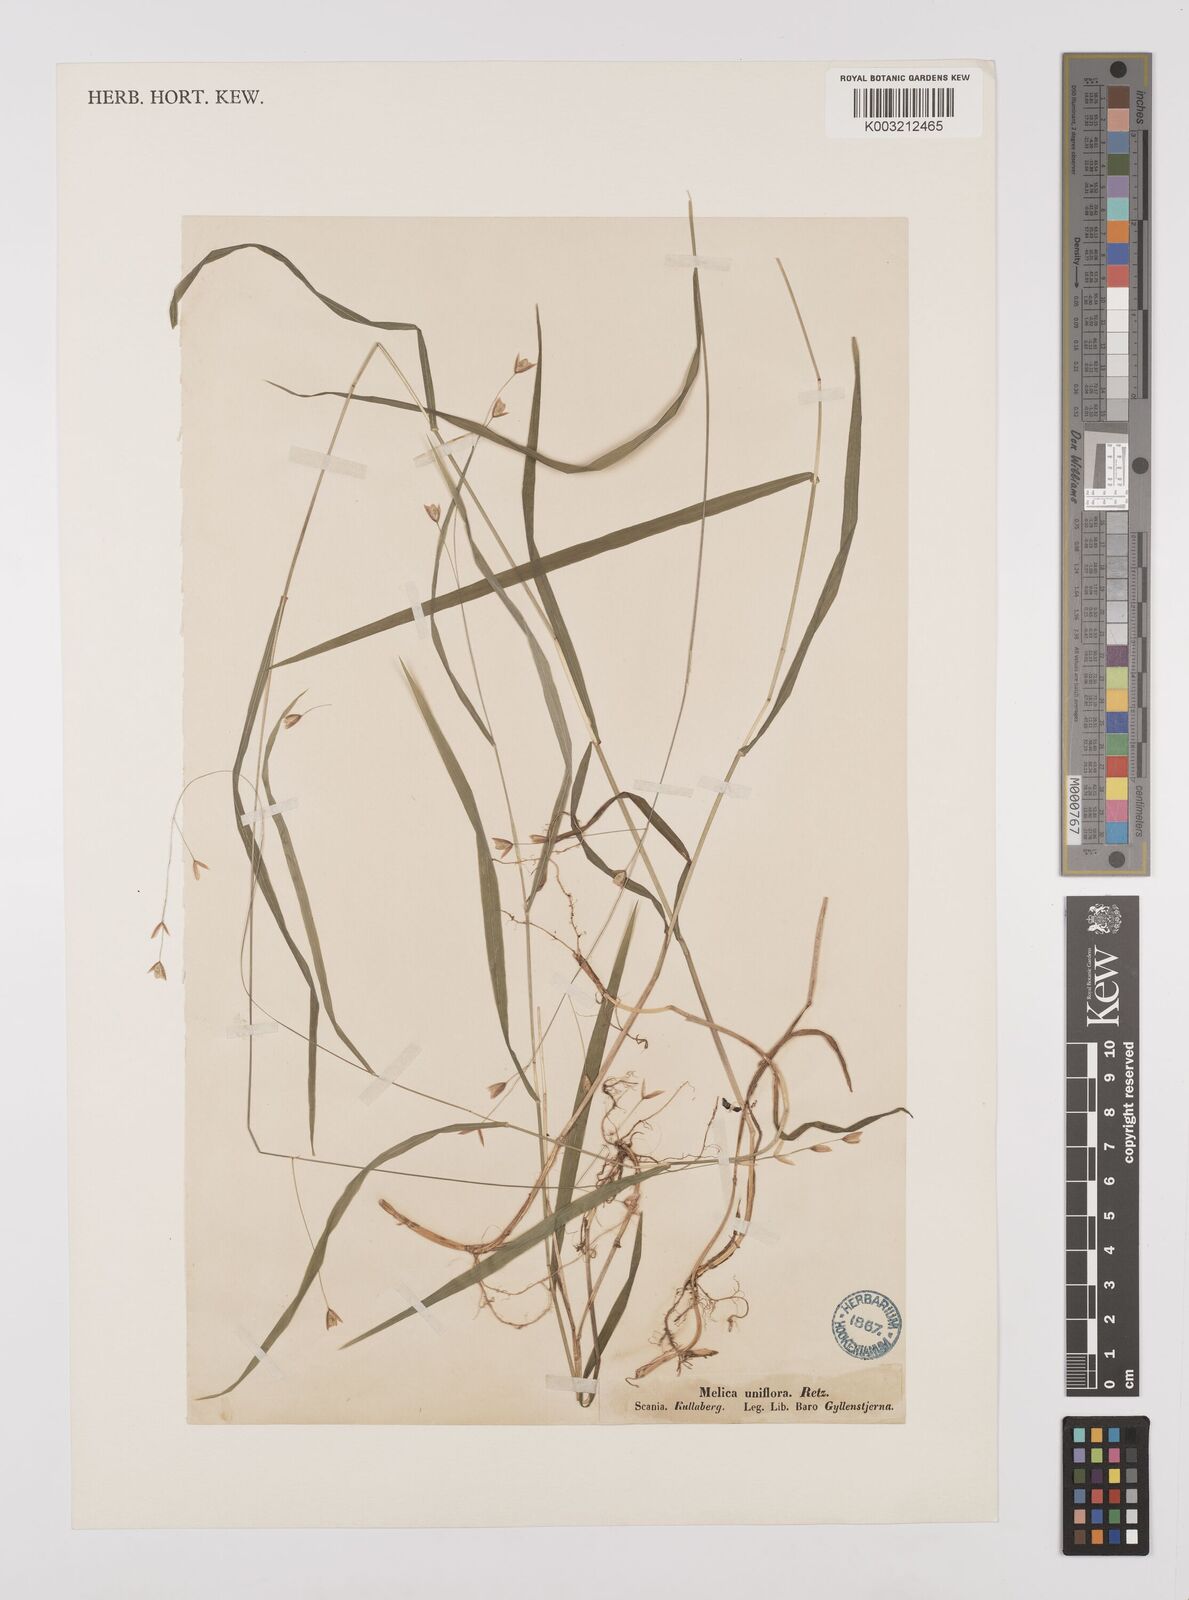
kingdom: Plantae
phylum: Tracheophyta
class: Liliopsida
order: Poales
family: Poaceae
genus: Melica
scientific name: Melica uniflora
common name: Wood melick
